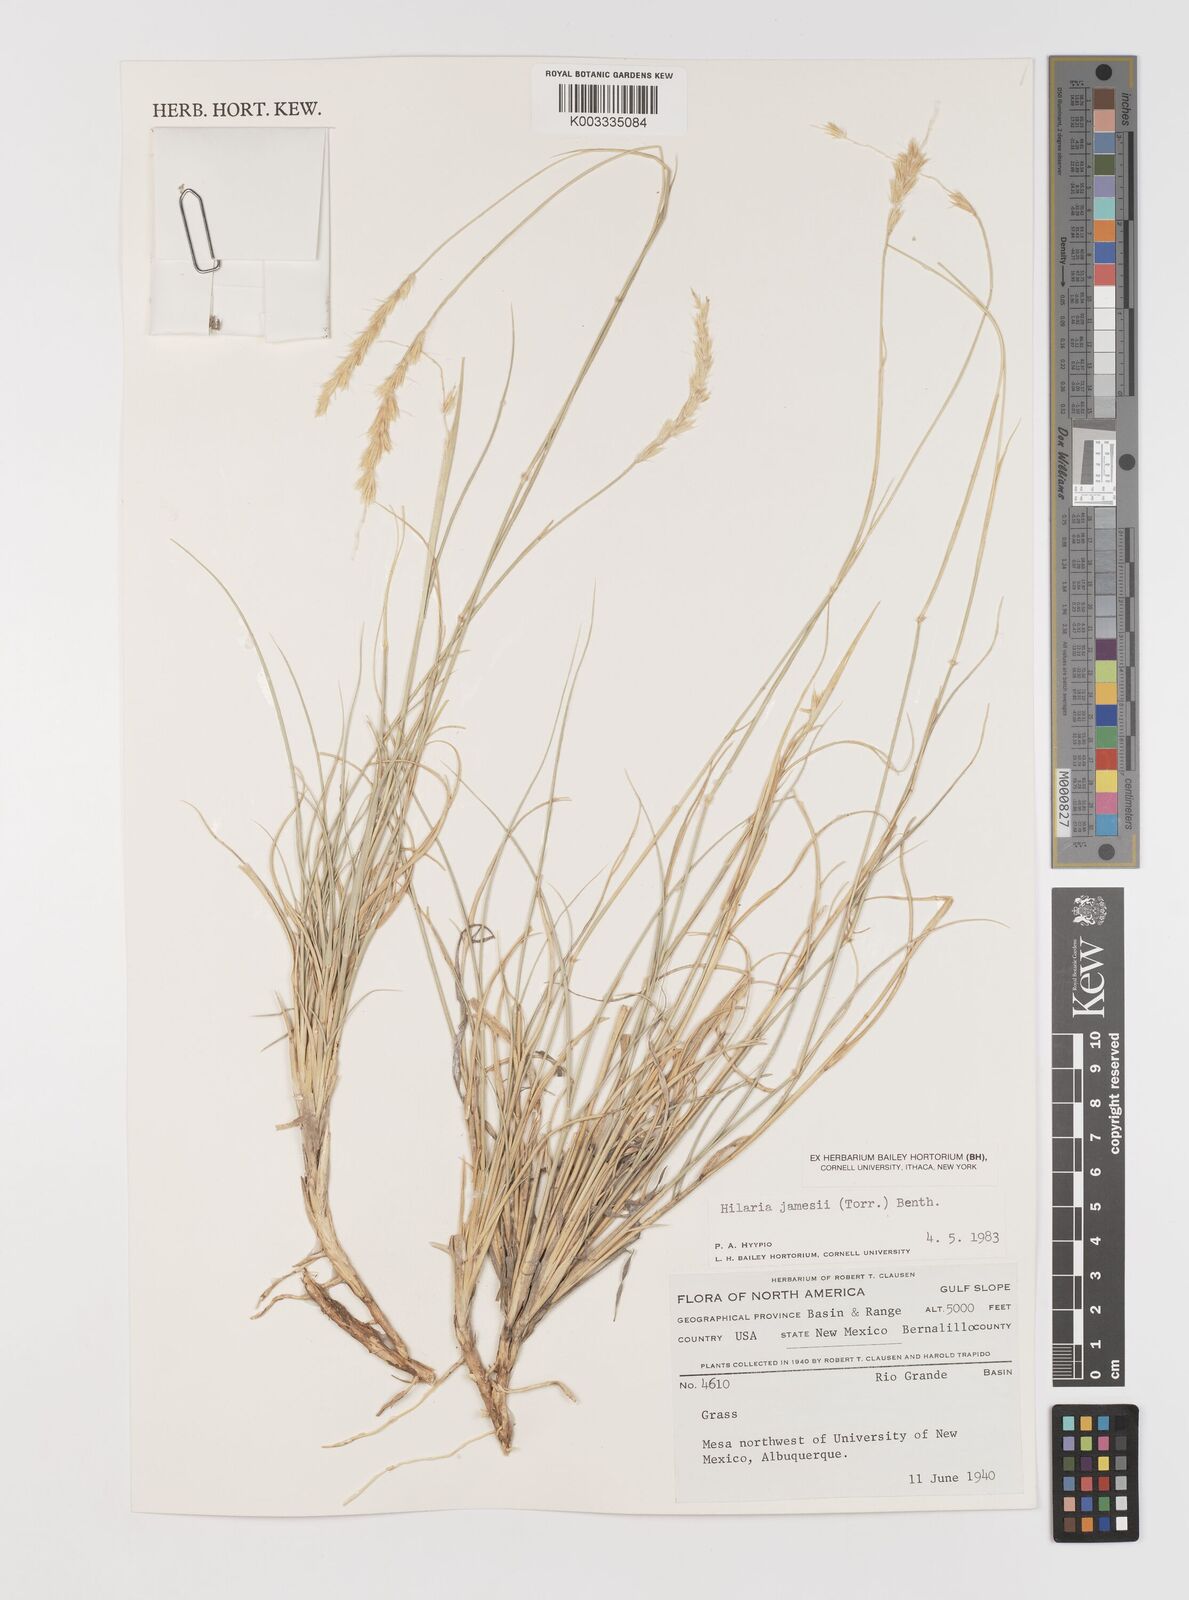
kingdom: Plantae
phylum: Tracheophyta
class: Liliopsida
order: Poales
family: Poaceae
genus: Hilaria
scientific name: Hilaria jamesii
